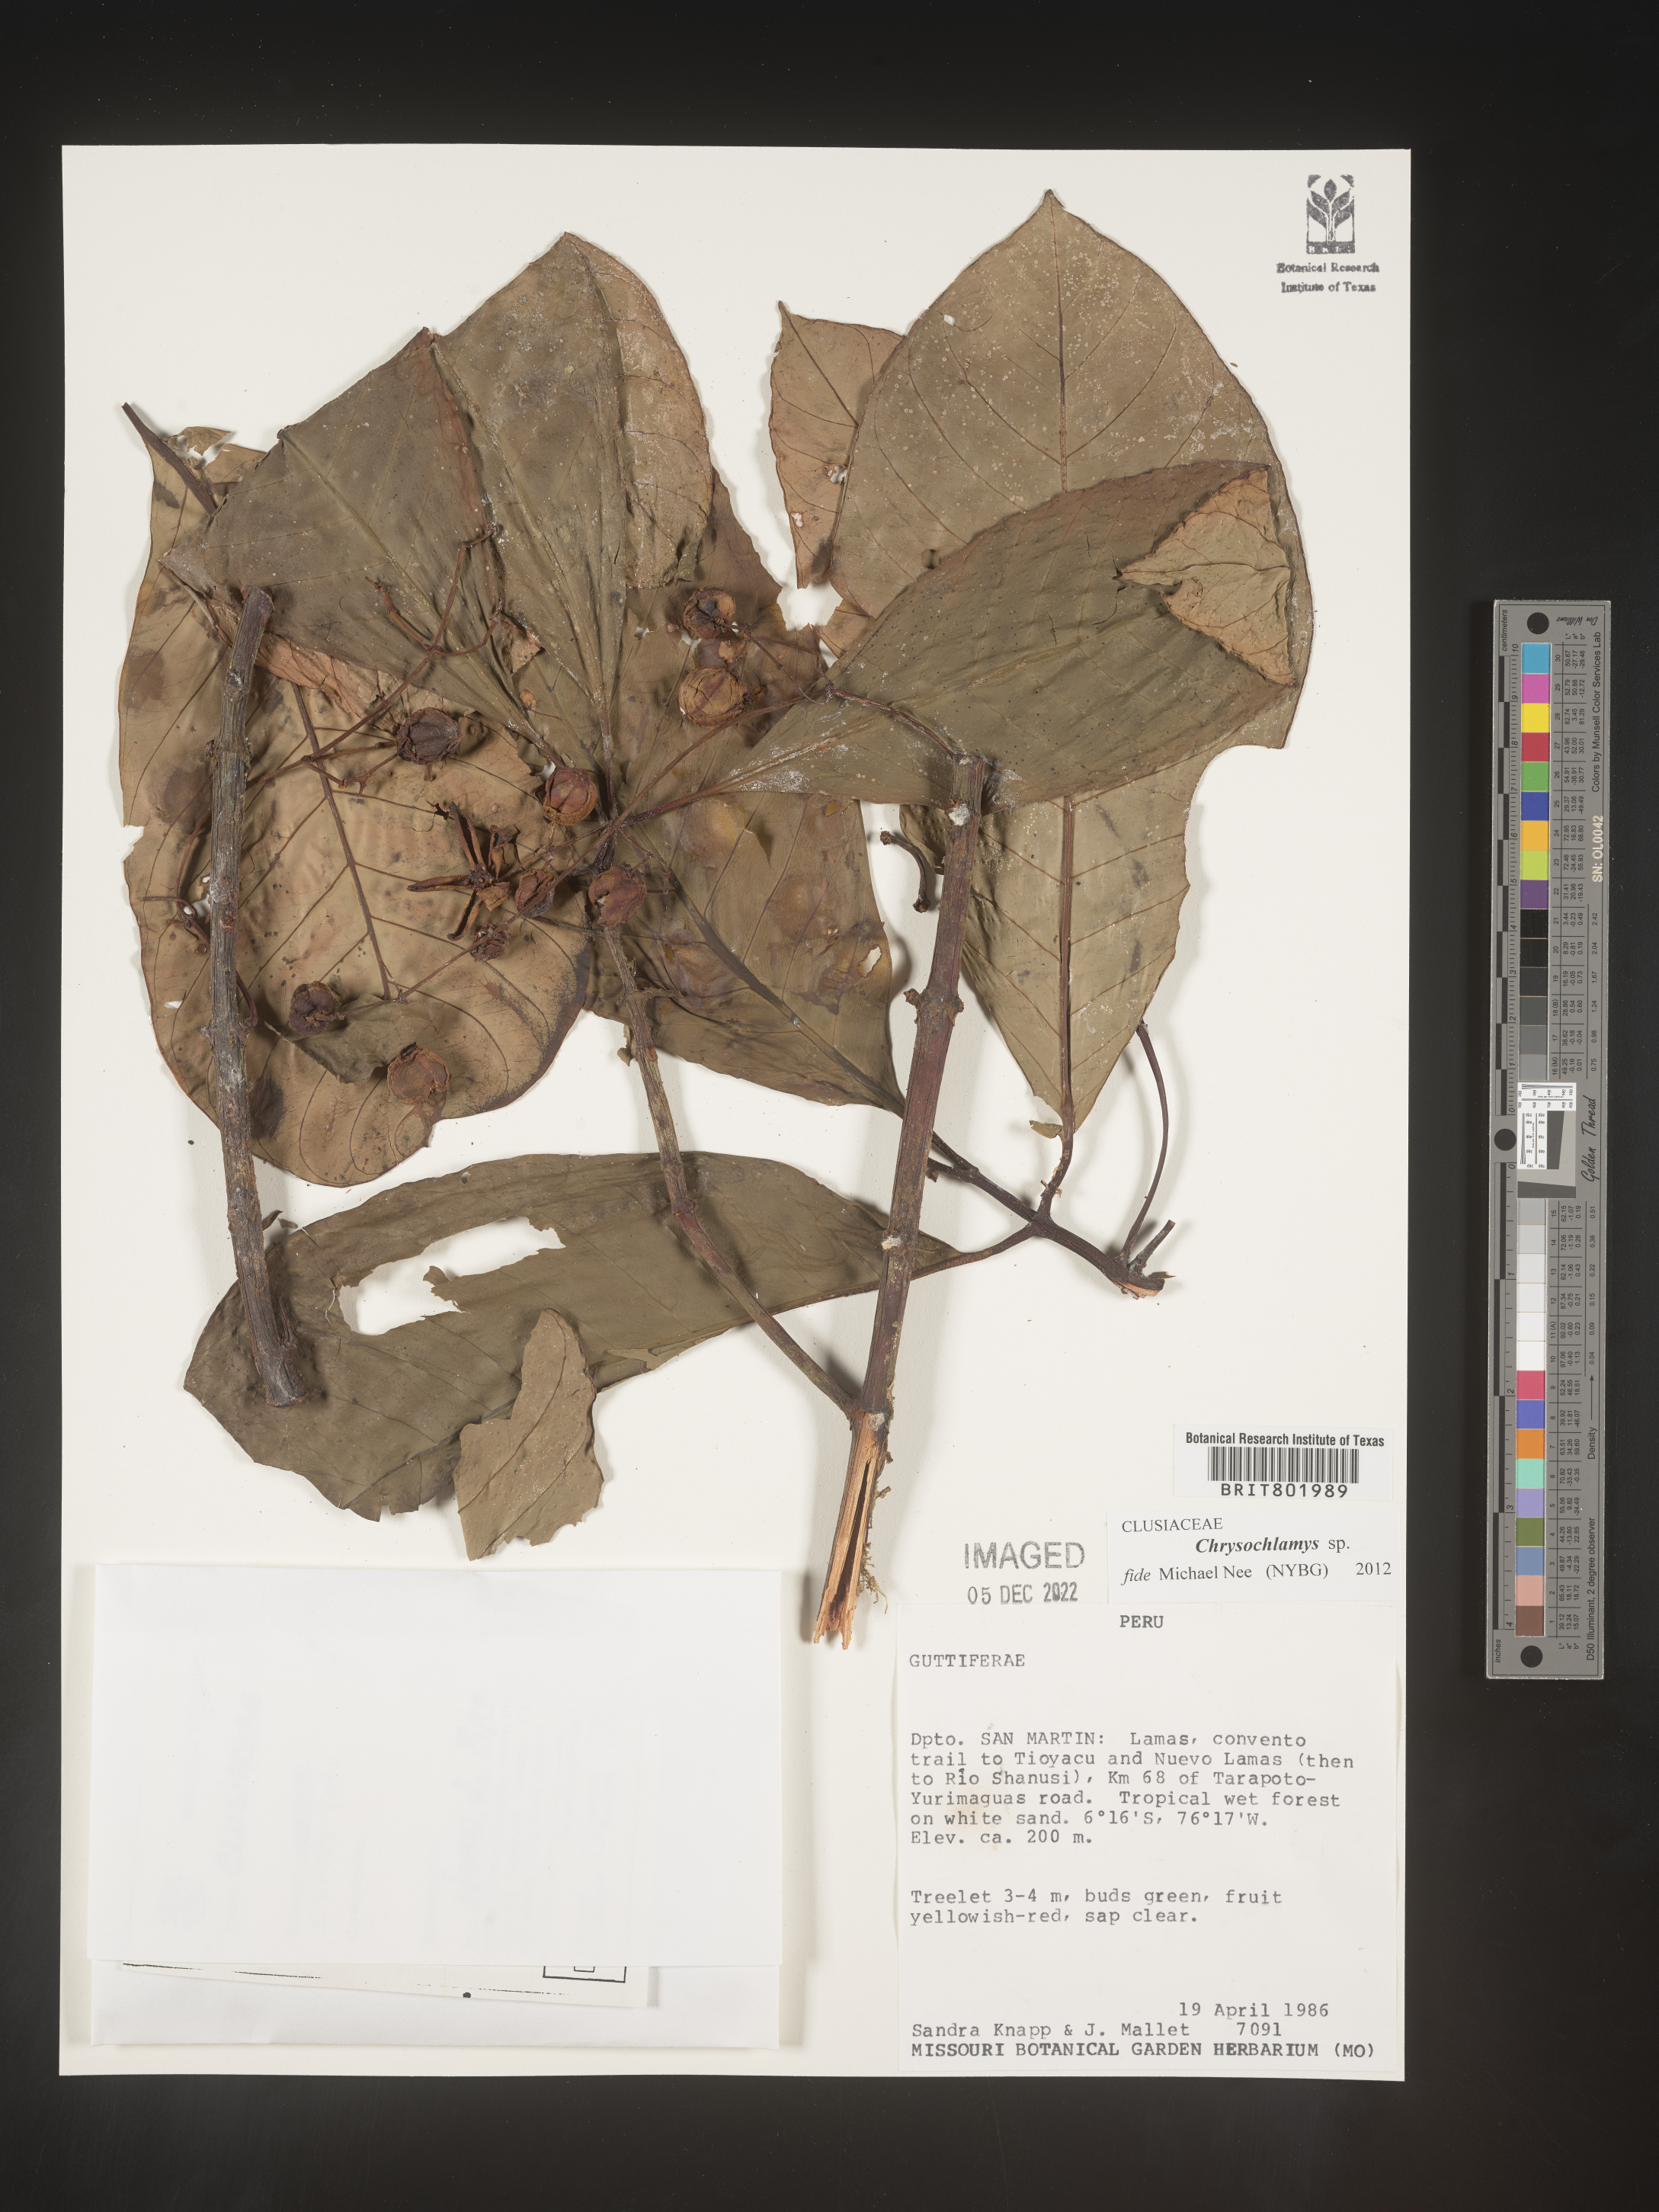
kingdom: Plantae
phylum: Tracheophyta
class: Magnoliopsida
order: Malpighiales
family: Clusiaceae
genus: Chrysochlamys
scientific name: Chrysochlamys
